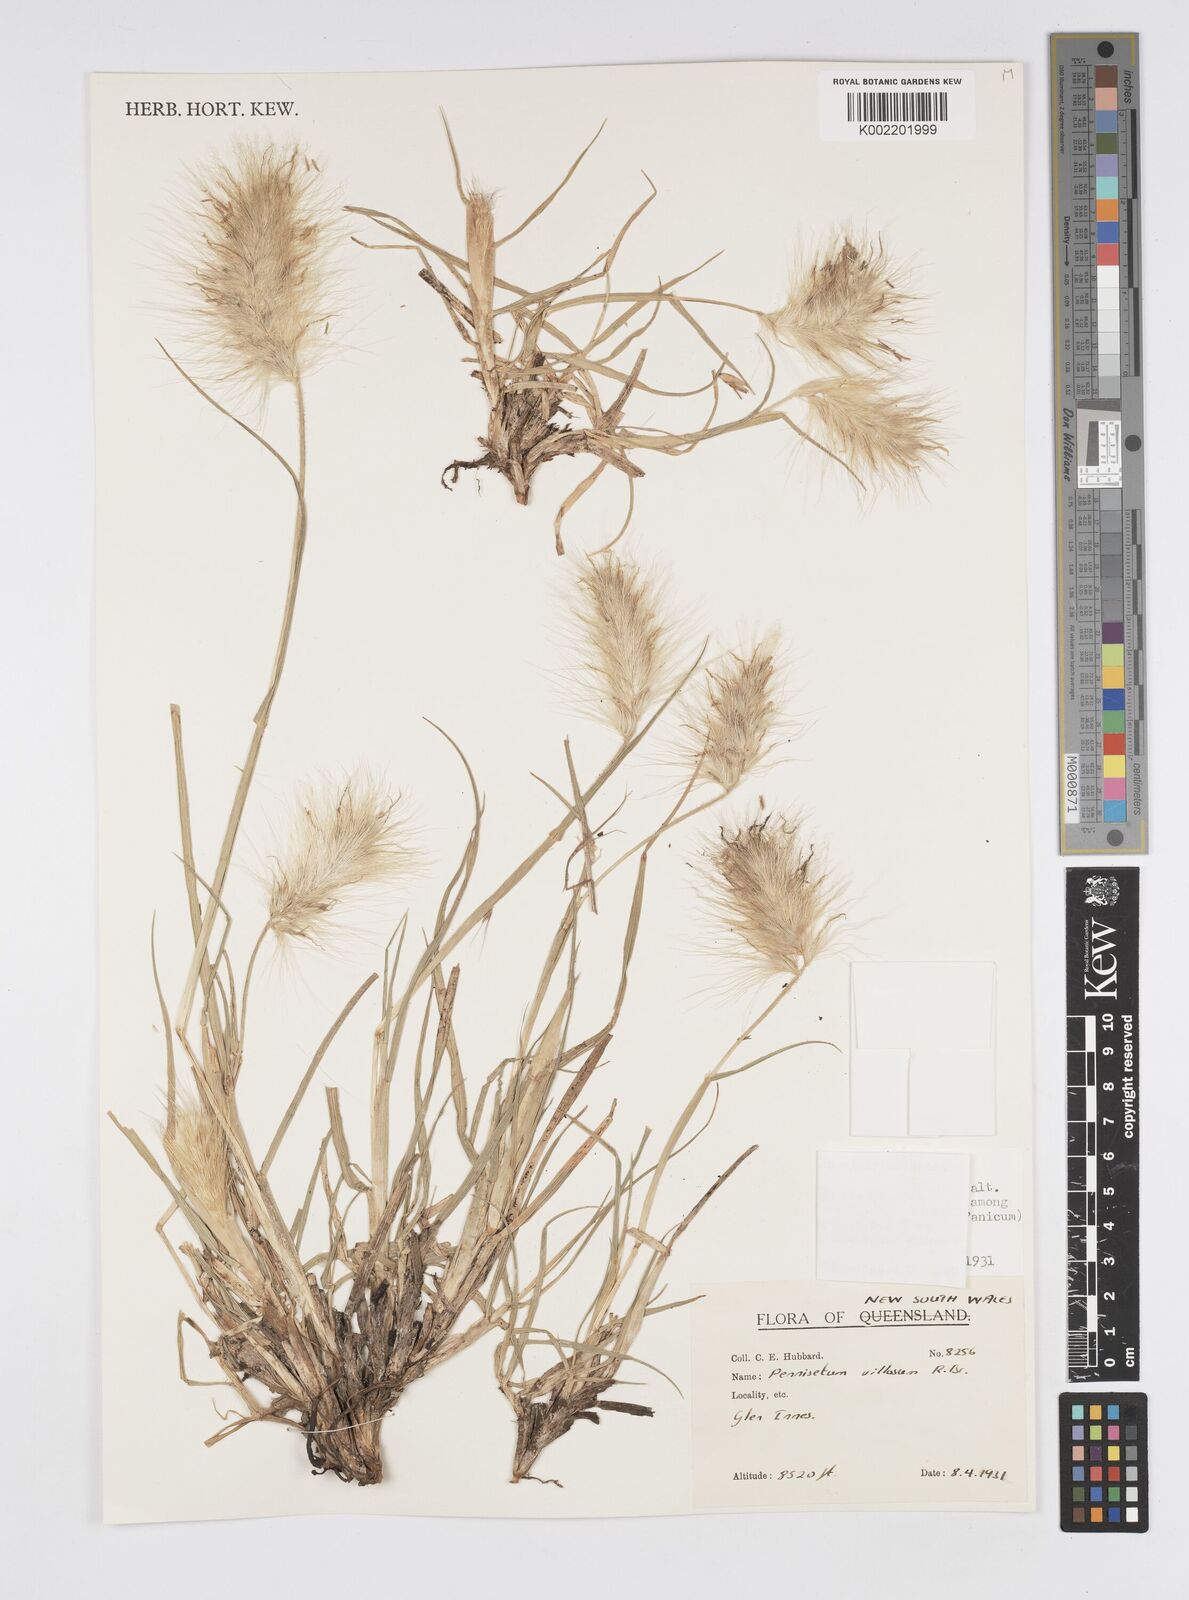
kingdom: Plantae
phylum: Tracheophyta
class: Liliopsida
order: Poales
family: Poaceae
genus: Cenchrus
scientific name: Cenchrus longisetus
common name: Feathertop
